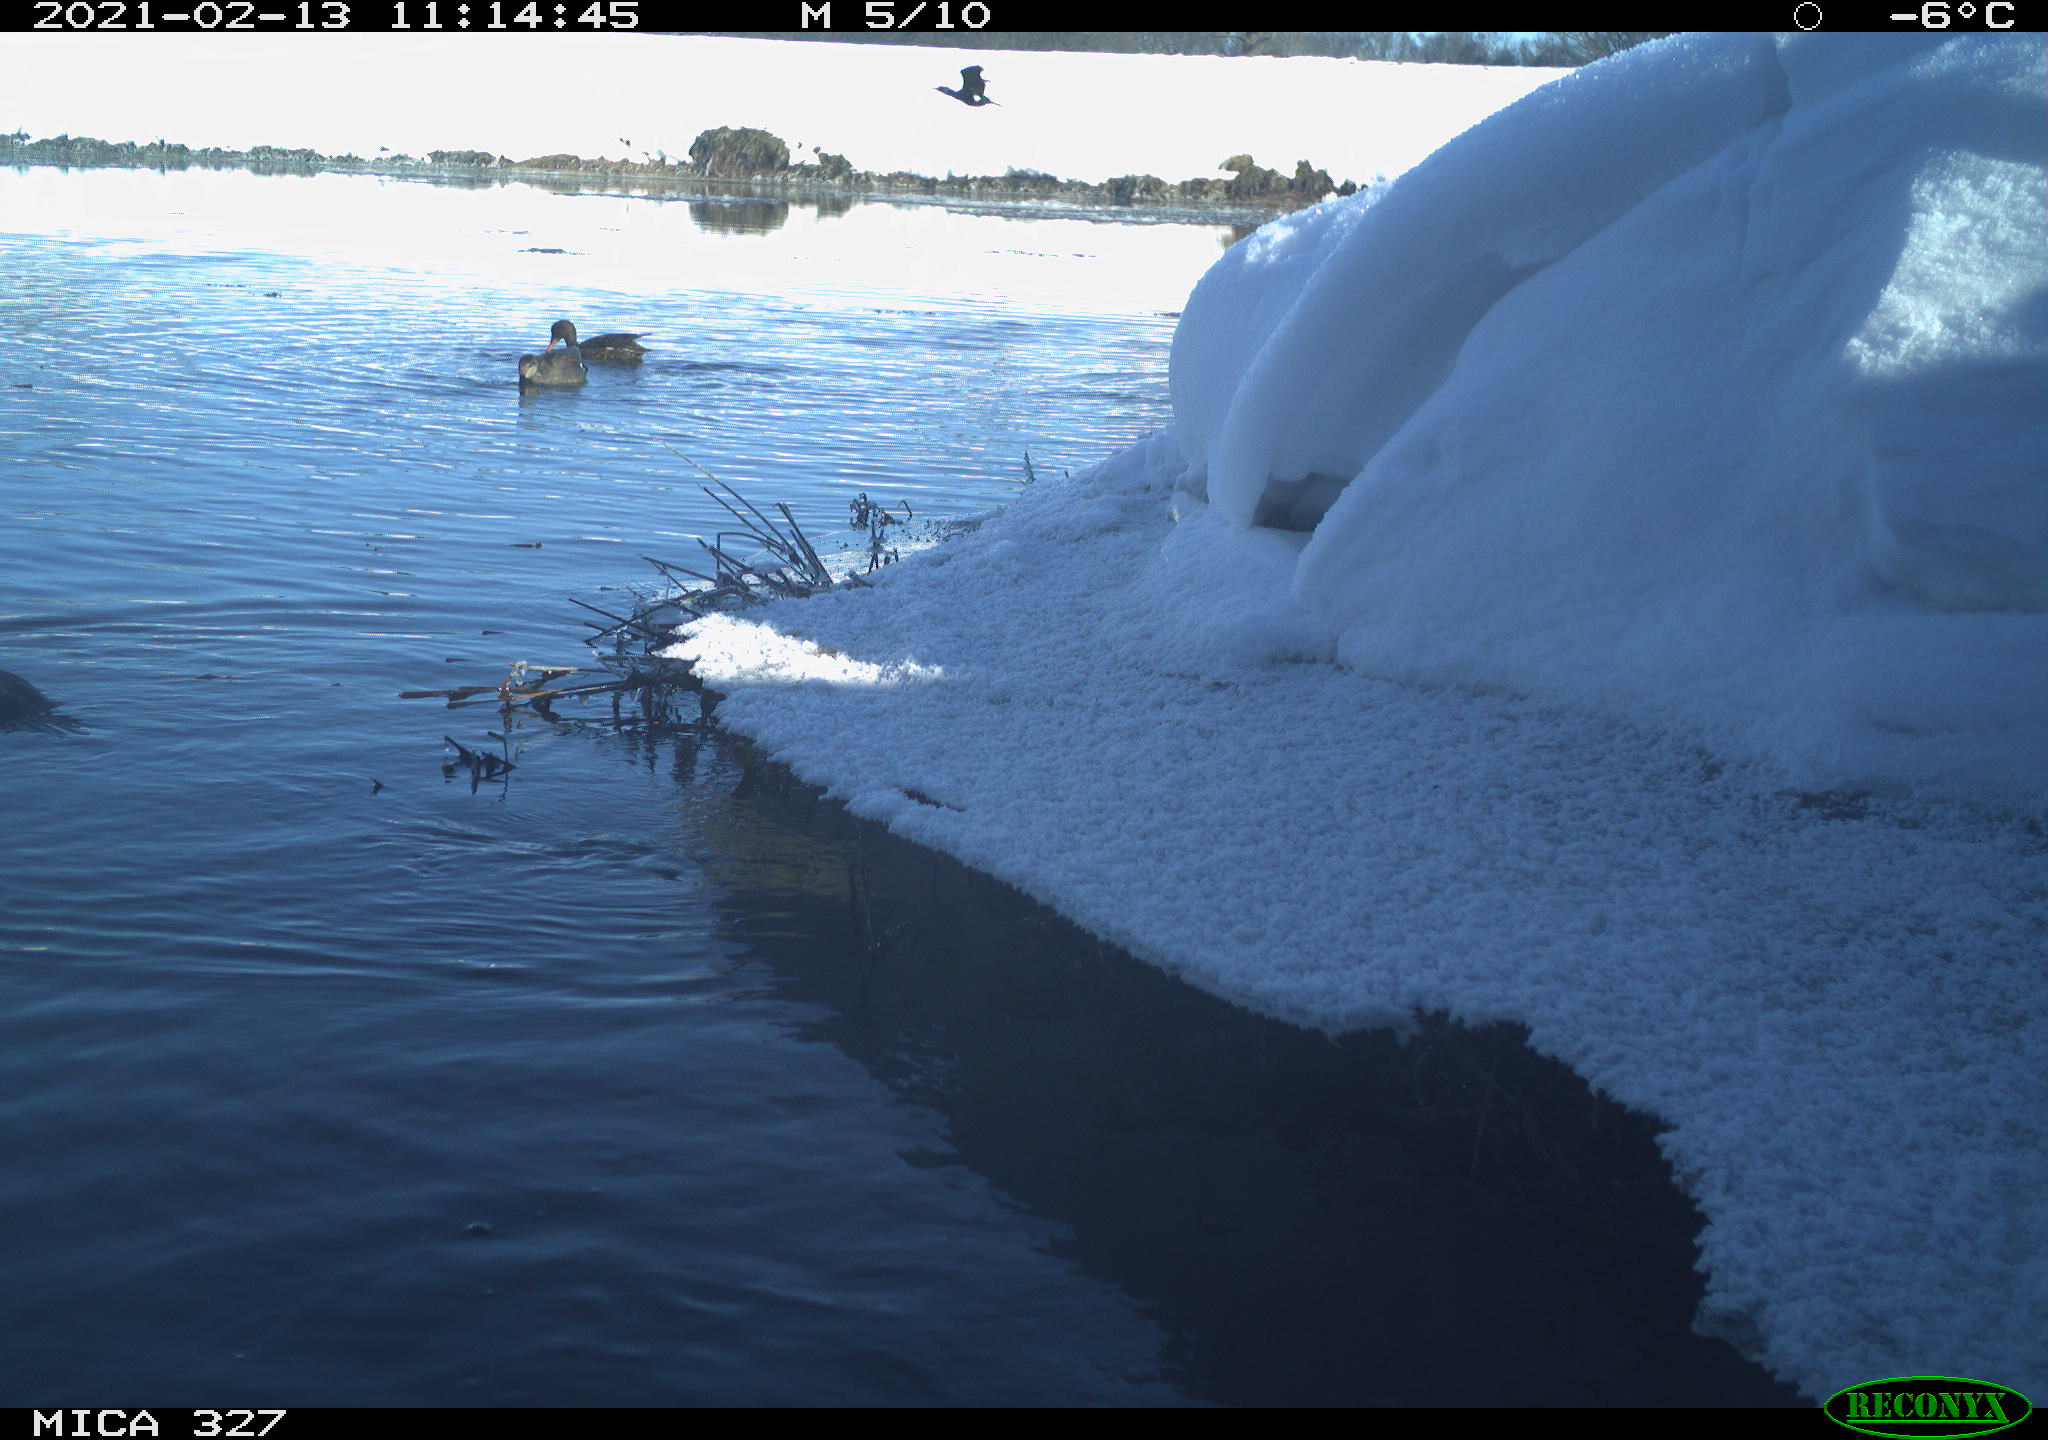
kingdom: Animalia
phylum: Chordata
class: Aves
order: Anseriformes
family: Anatidae
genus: Anas
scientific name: Anas
